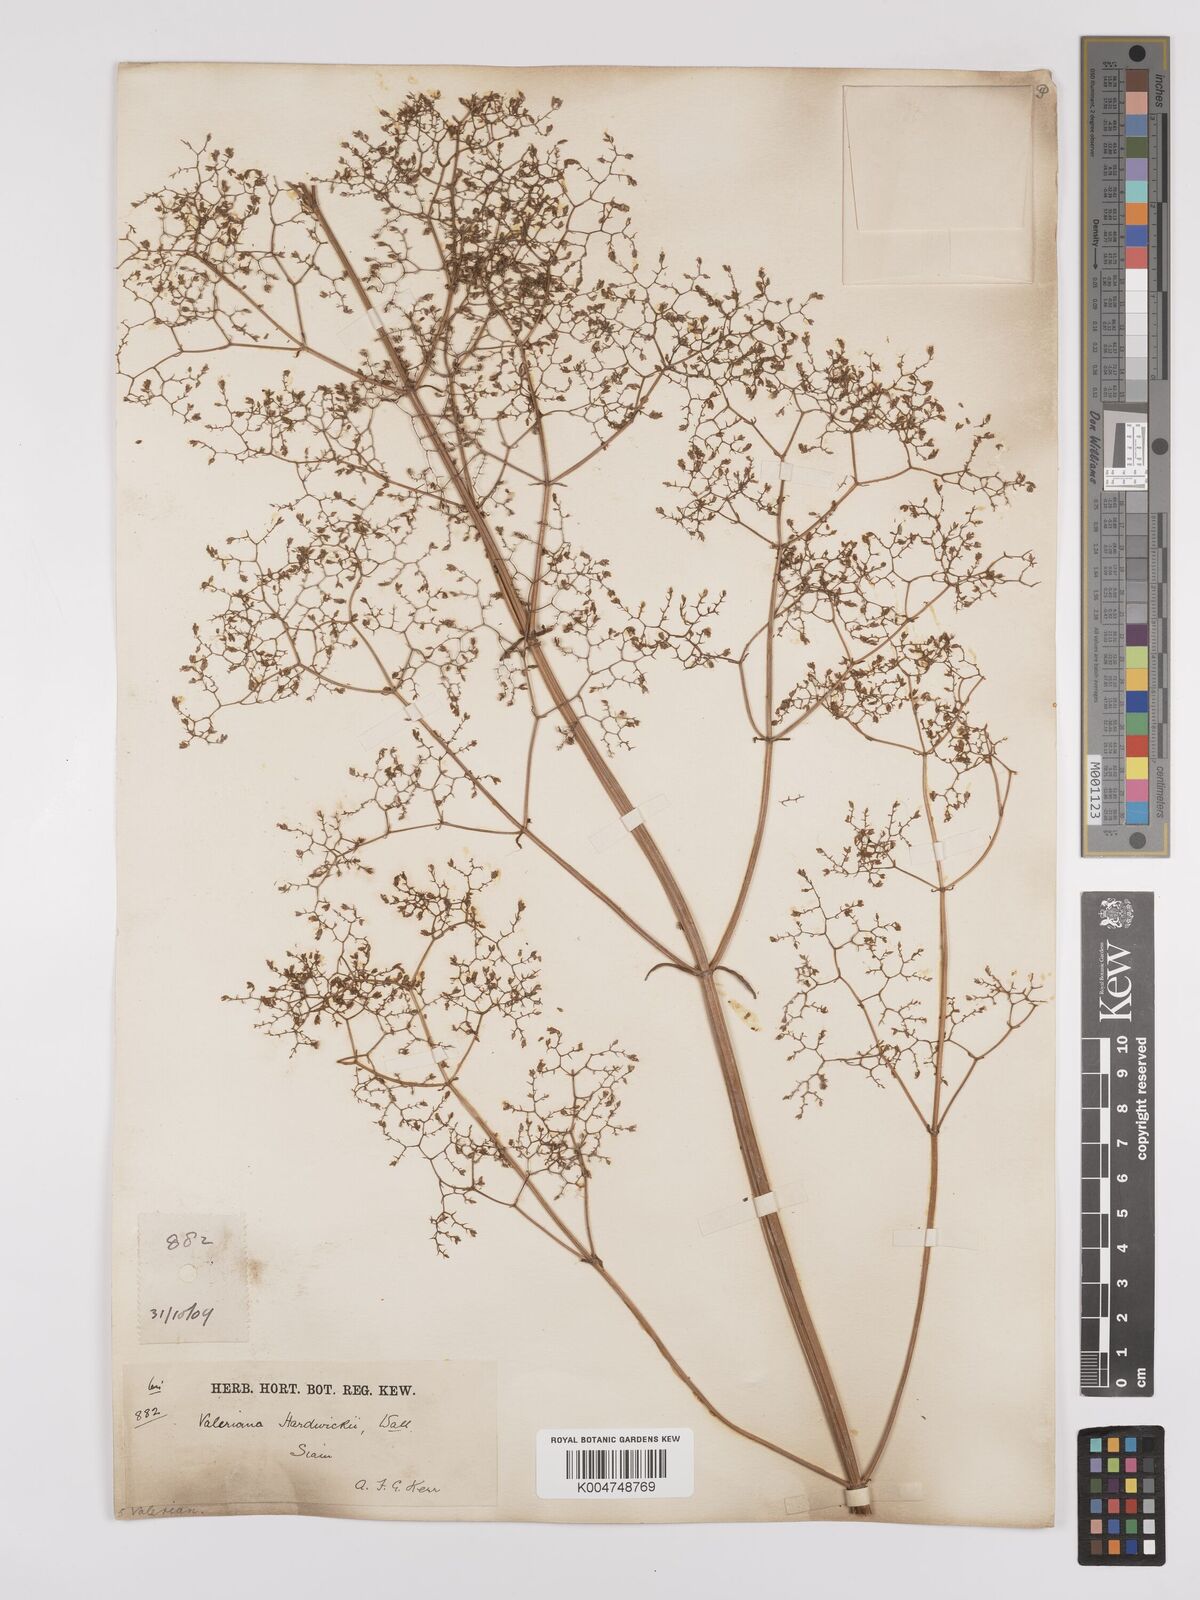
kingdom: Plantae
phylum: Tracheophyta
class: Magnoliopsida
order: Dipsacales
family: Caprifoliaceae
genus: Valeriana
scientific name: Valeriana hardwickei
